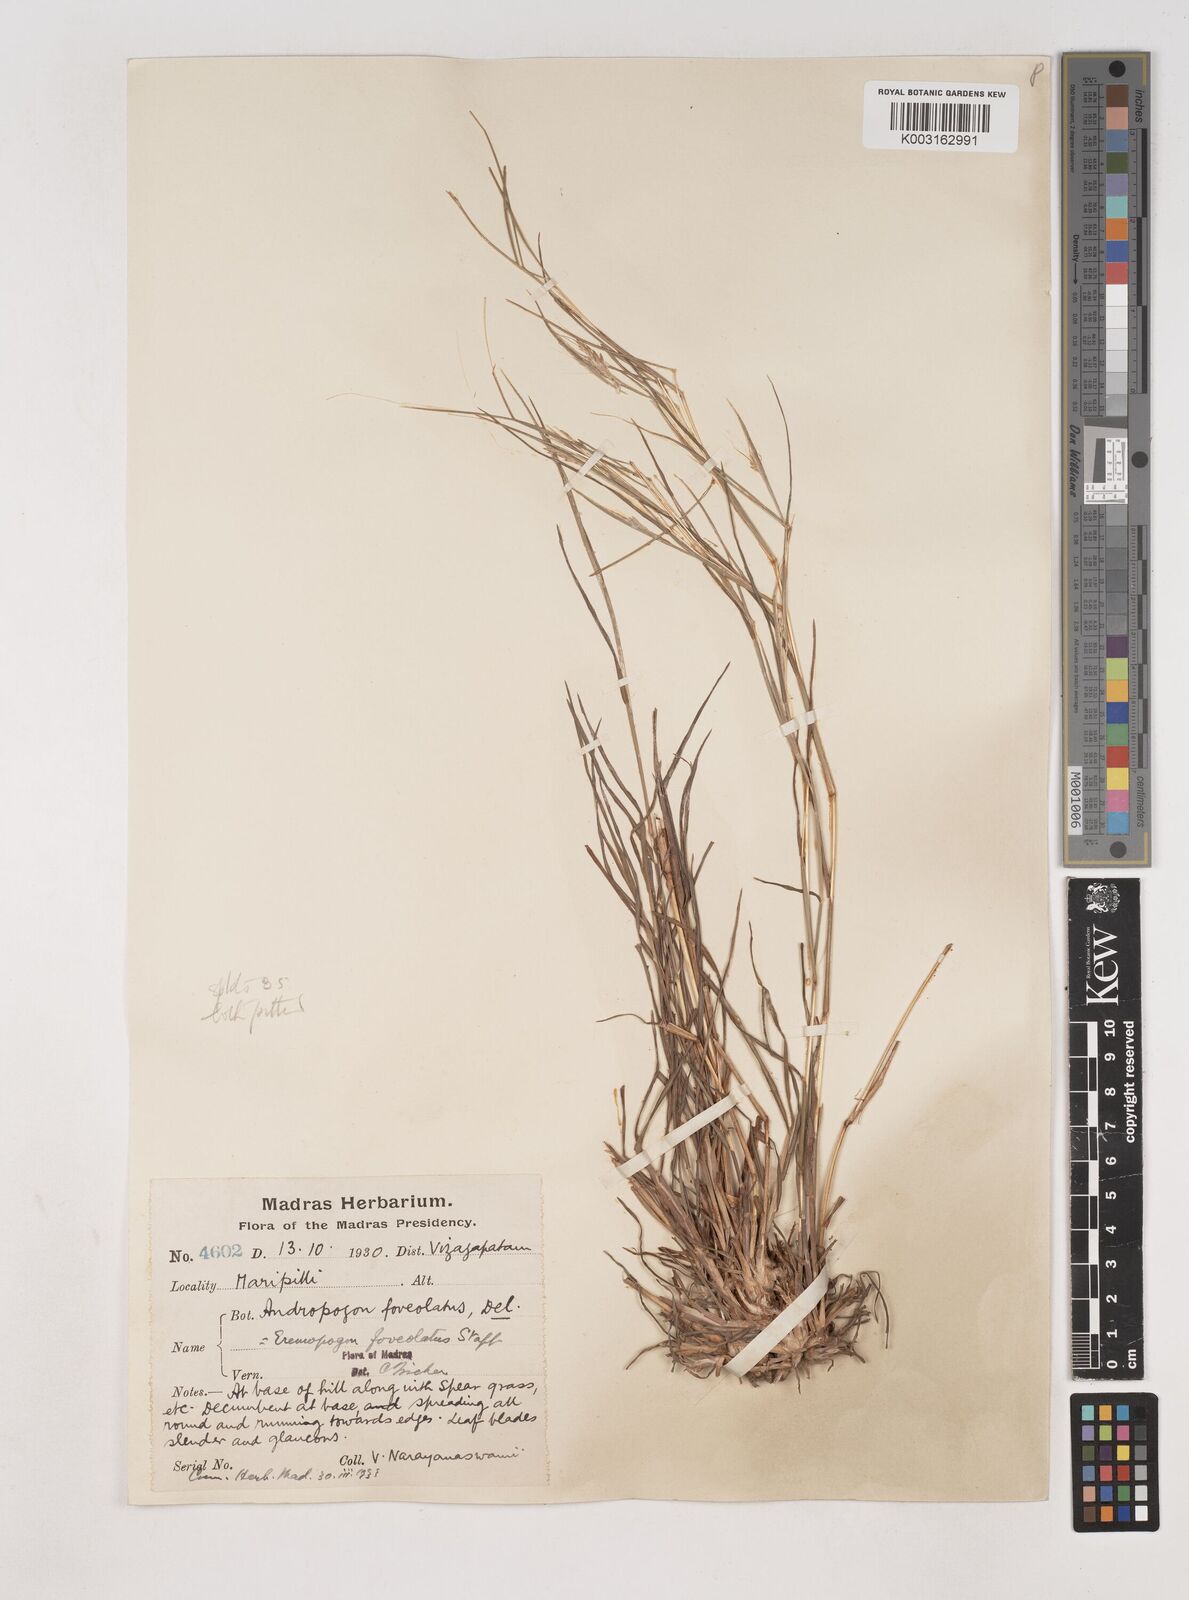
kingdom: Plantae
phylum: Tracheophyta
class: Liliopsida
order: Poales
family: Poaceae
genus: Dichanthium
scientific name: Dichanthium foveolatum
